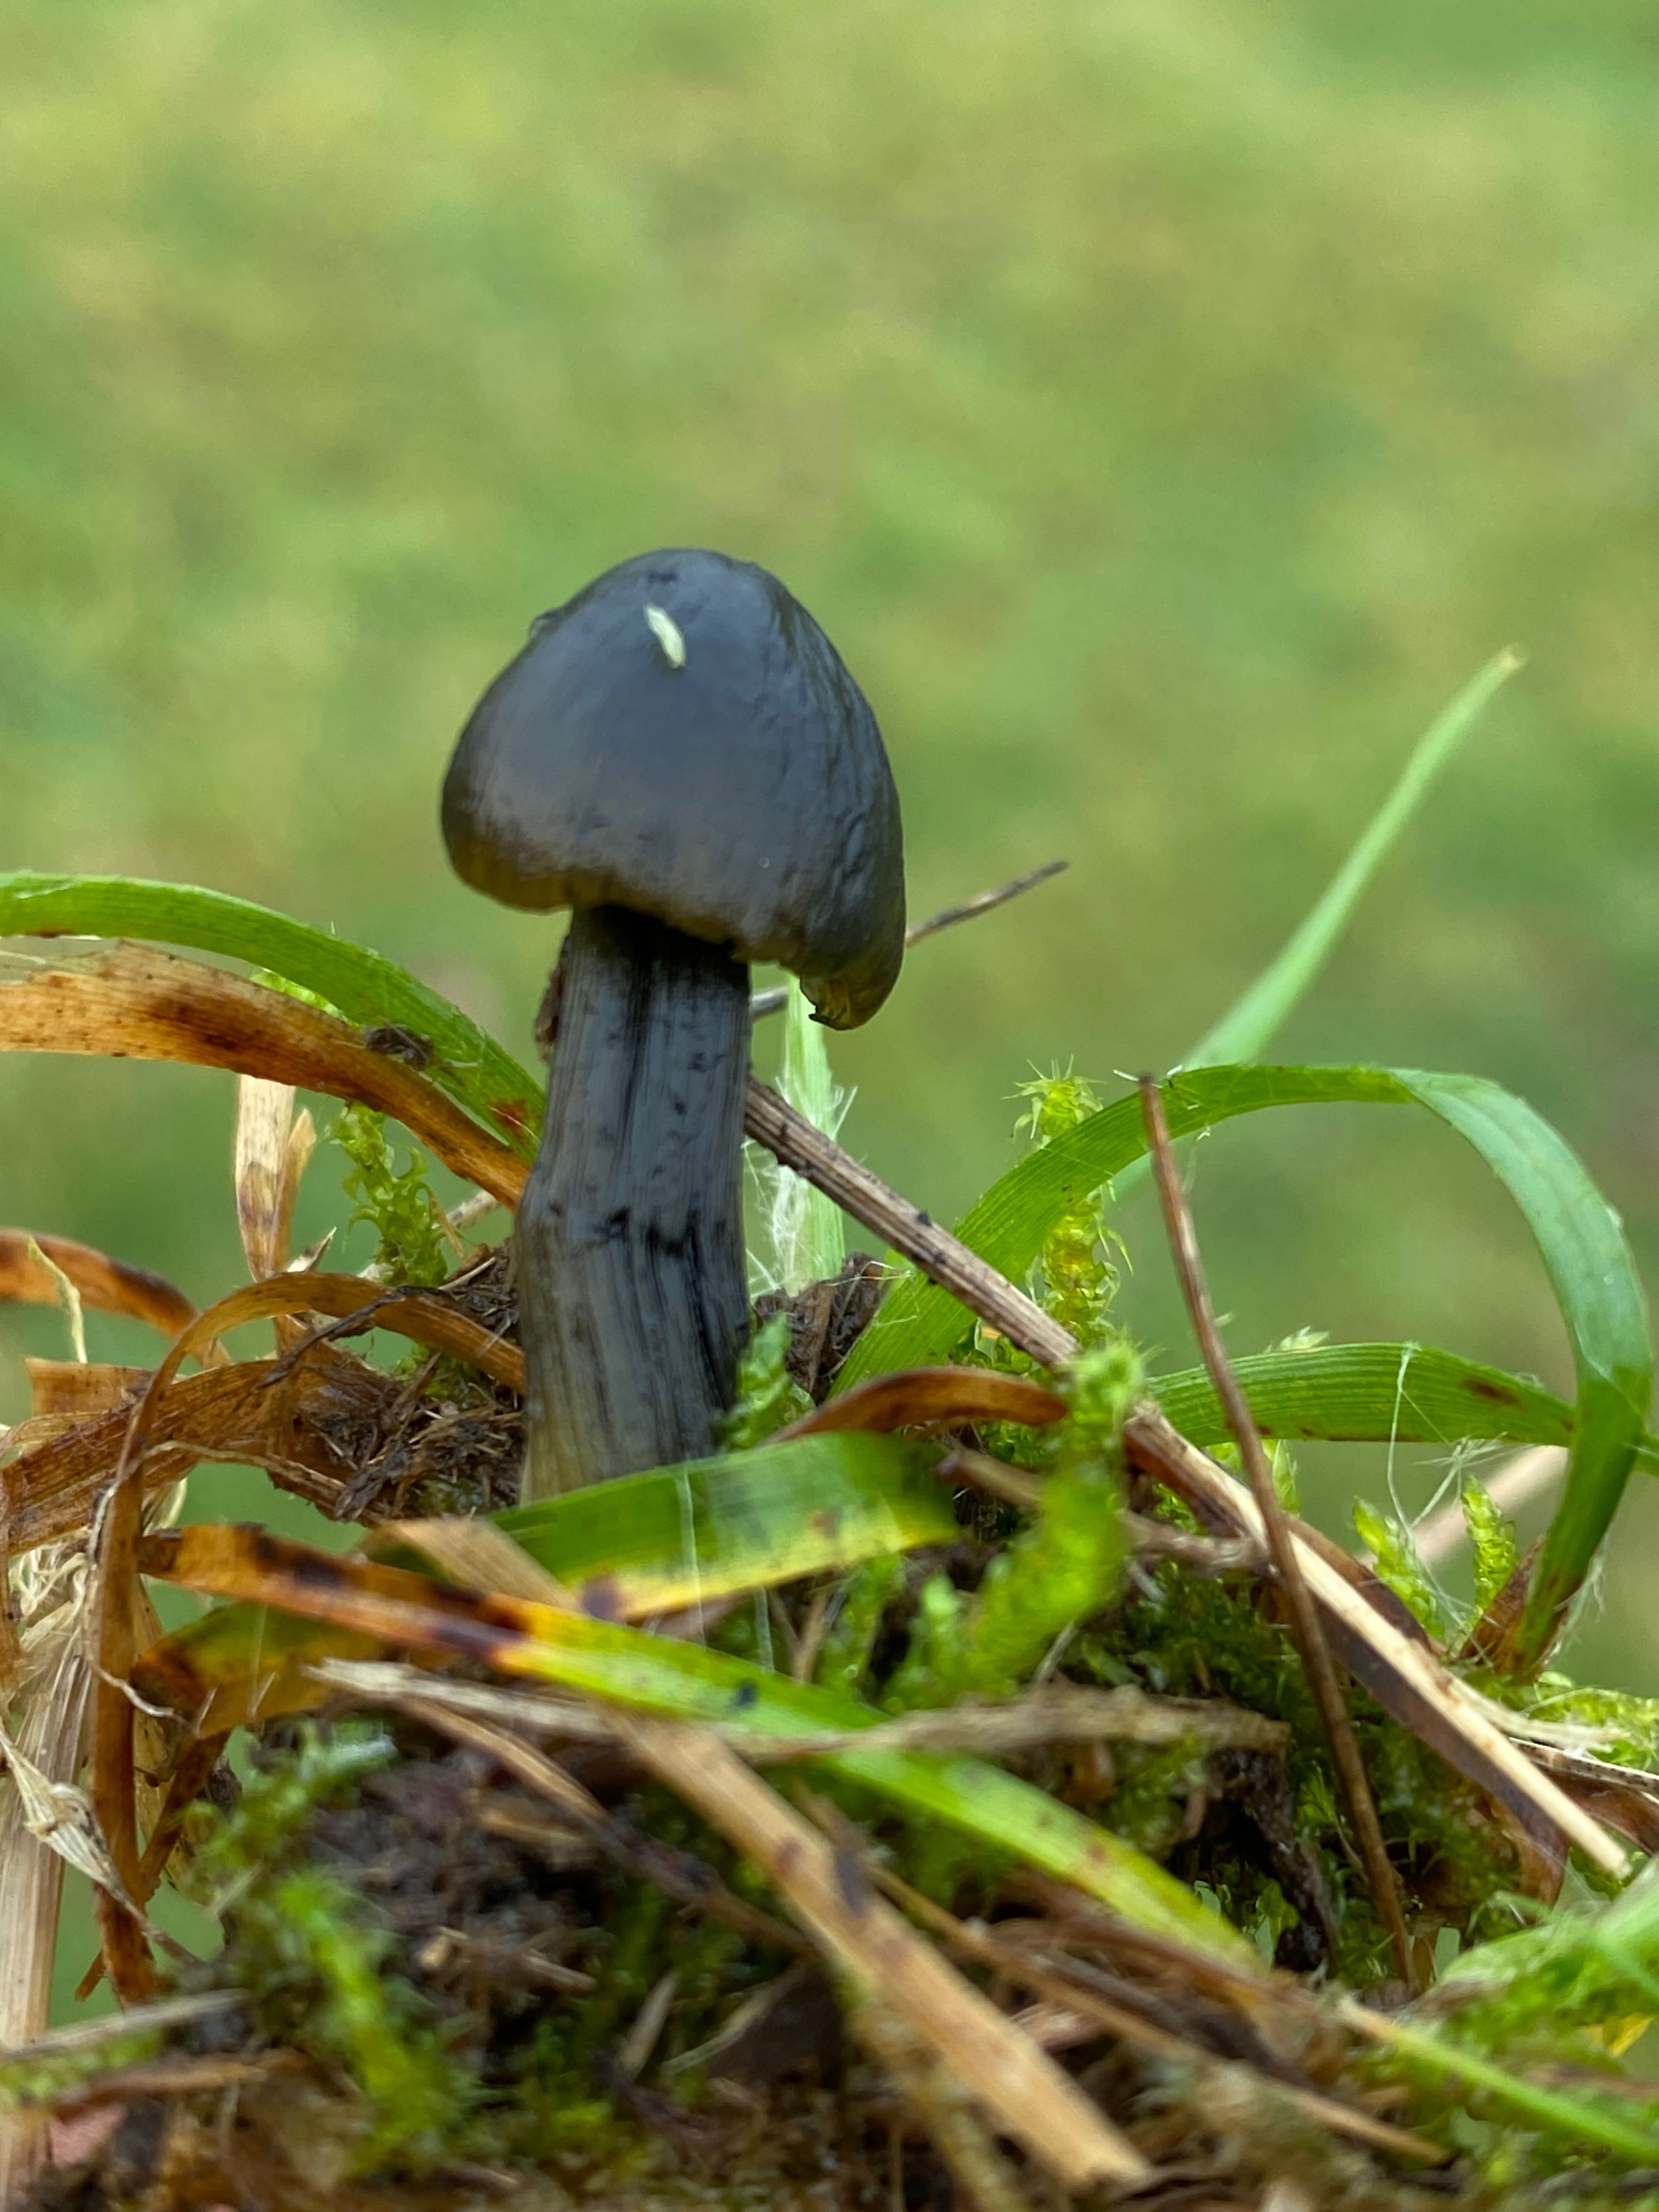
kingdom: Fungi
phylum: Basidiomycota
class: Agaricomycetes
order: Agaricales
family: Hygrophoraceae
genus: Hygrocybe
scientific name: Hygrocybe conica
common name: kegle-vokshat
